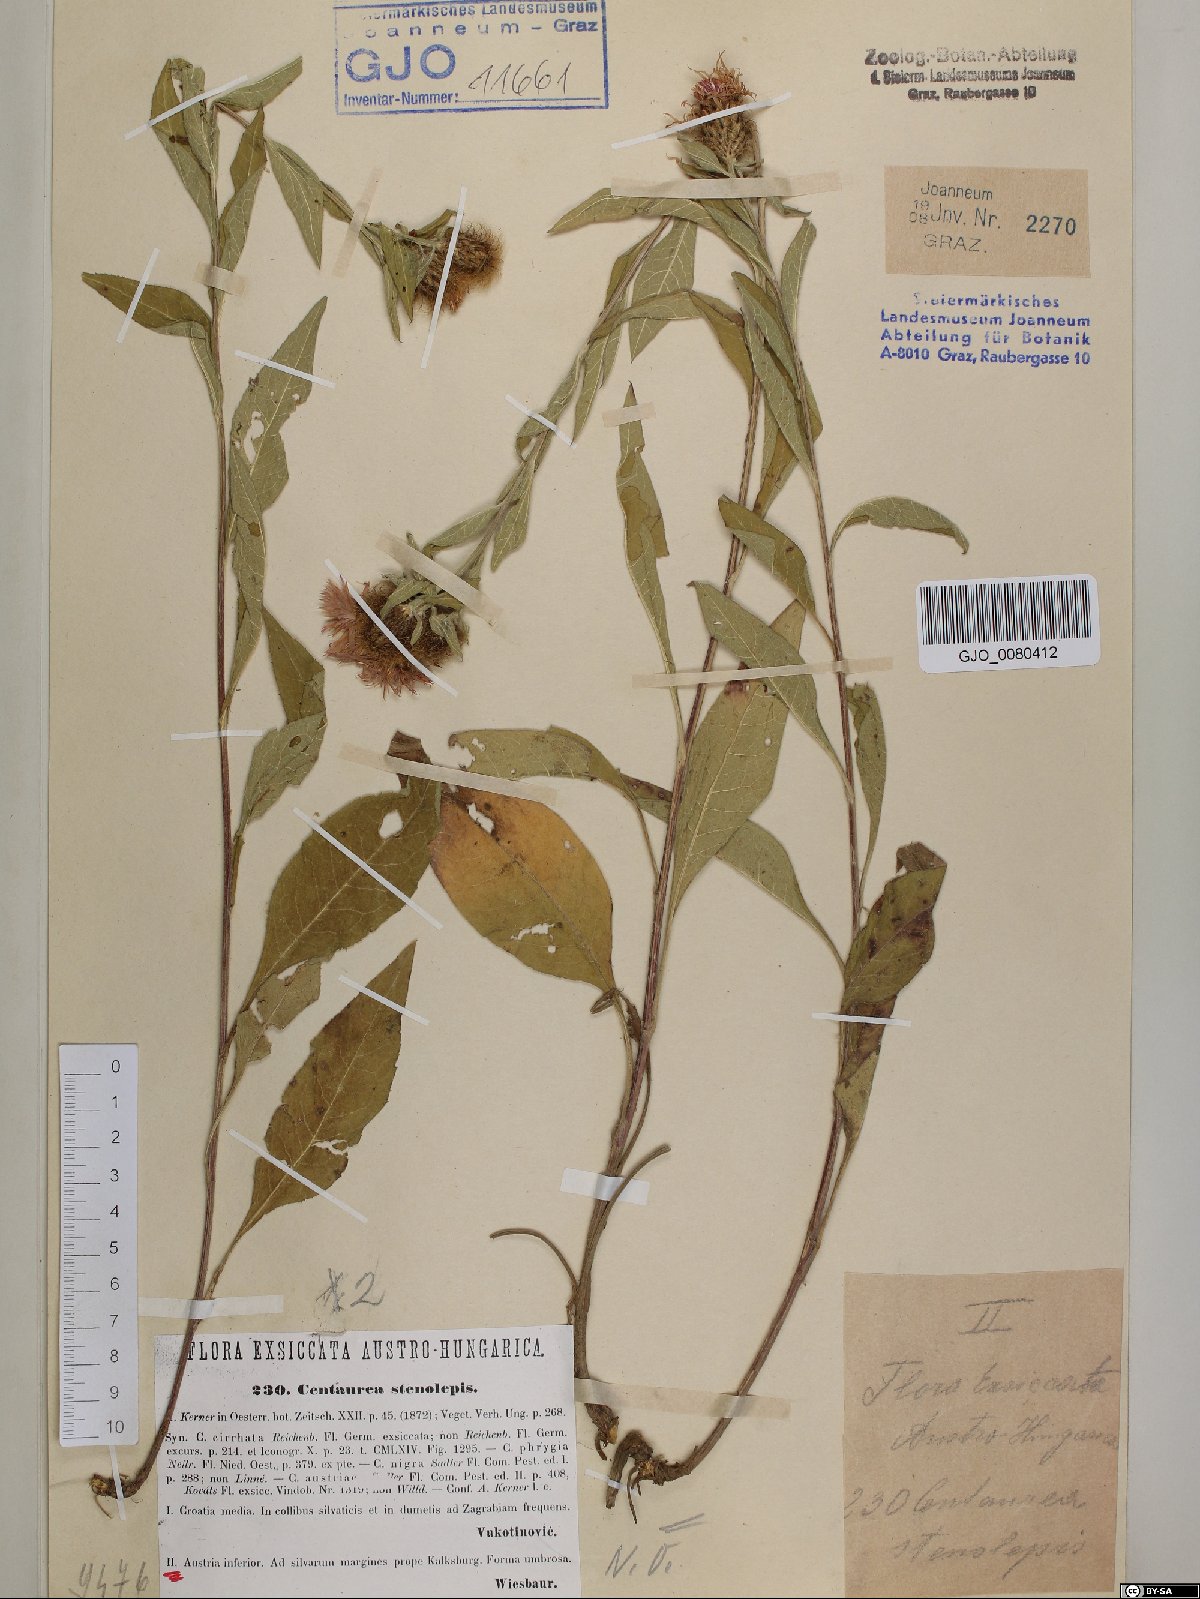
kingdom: Plantae
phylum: Tracheophyta
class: Magnoliopsida
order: Asterales
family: Asteraceae
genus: Centaurea
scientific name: Centaurea stenolepis
